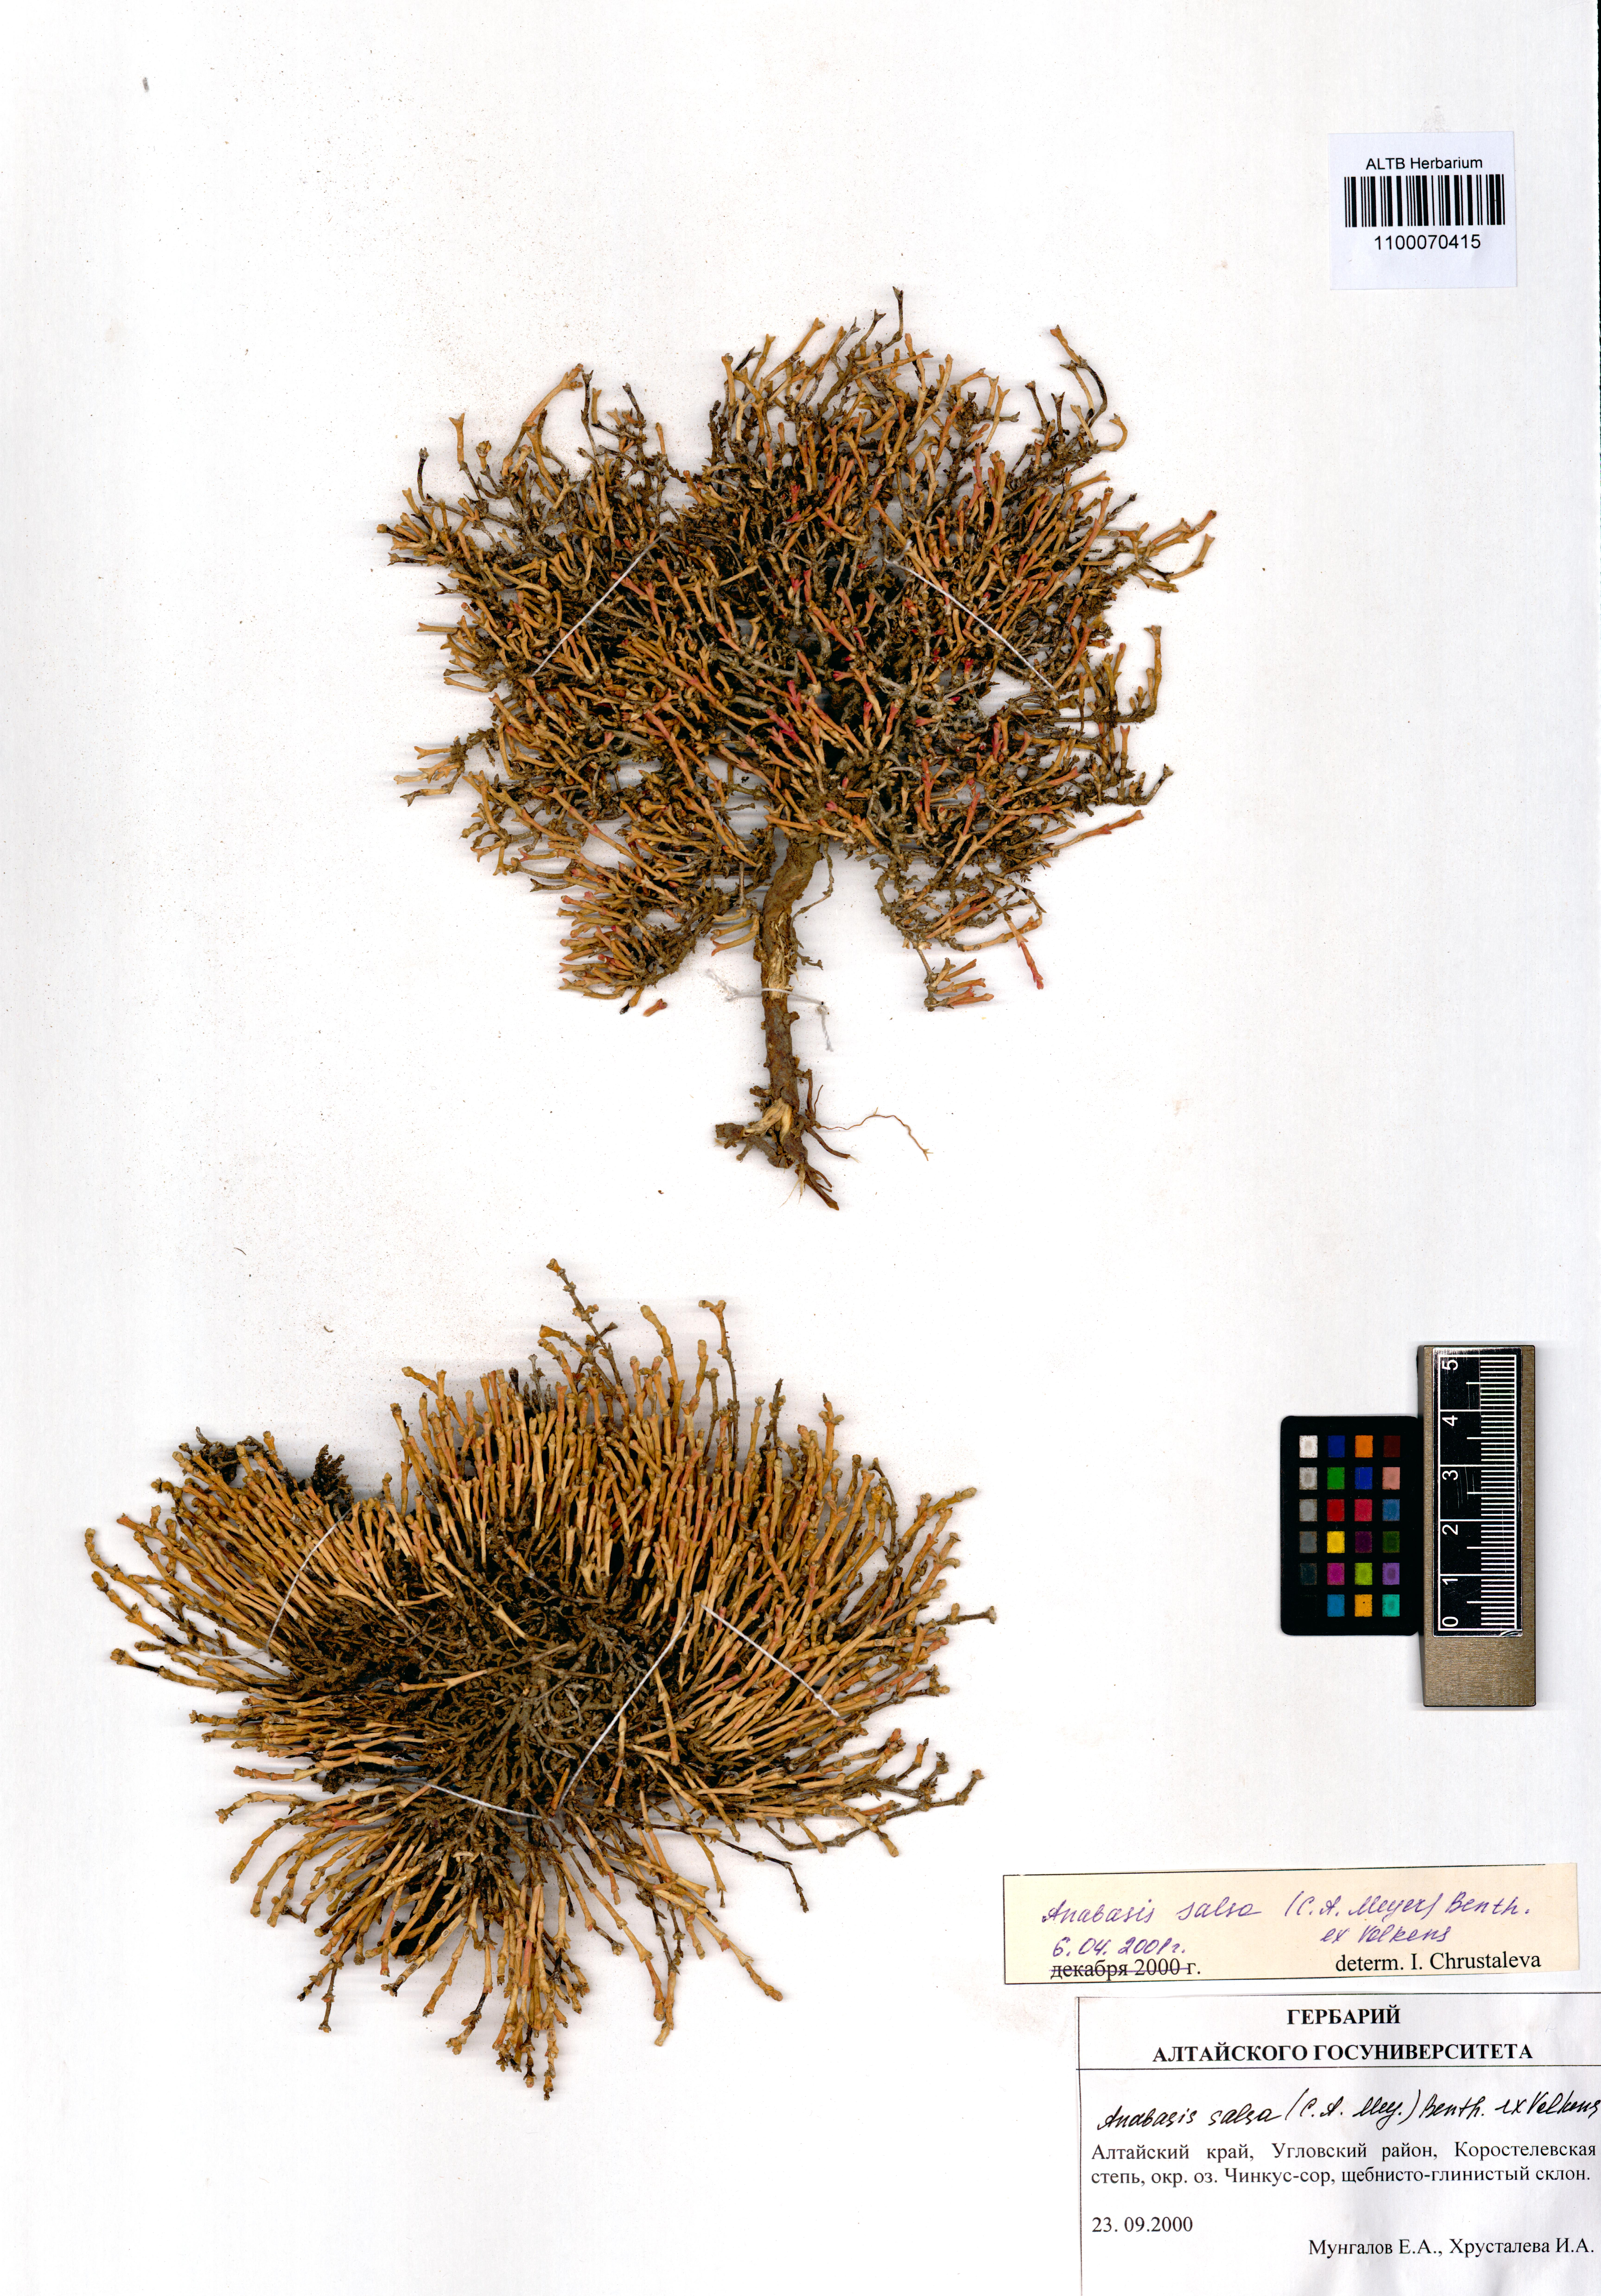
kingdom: Plantae
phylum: Tracheophyta
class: Magnoliopsida
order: Caryophyllales
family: Amaranthaceae
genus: Anabasis
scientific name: Anabasis salsa
